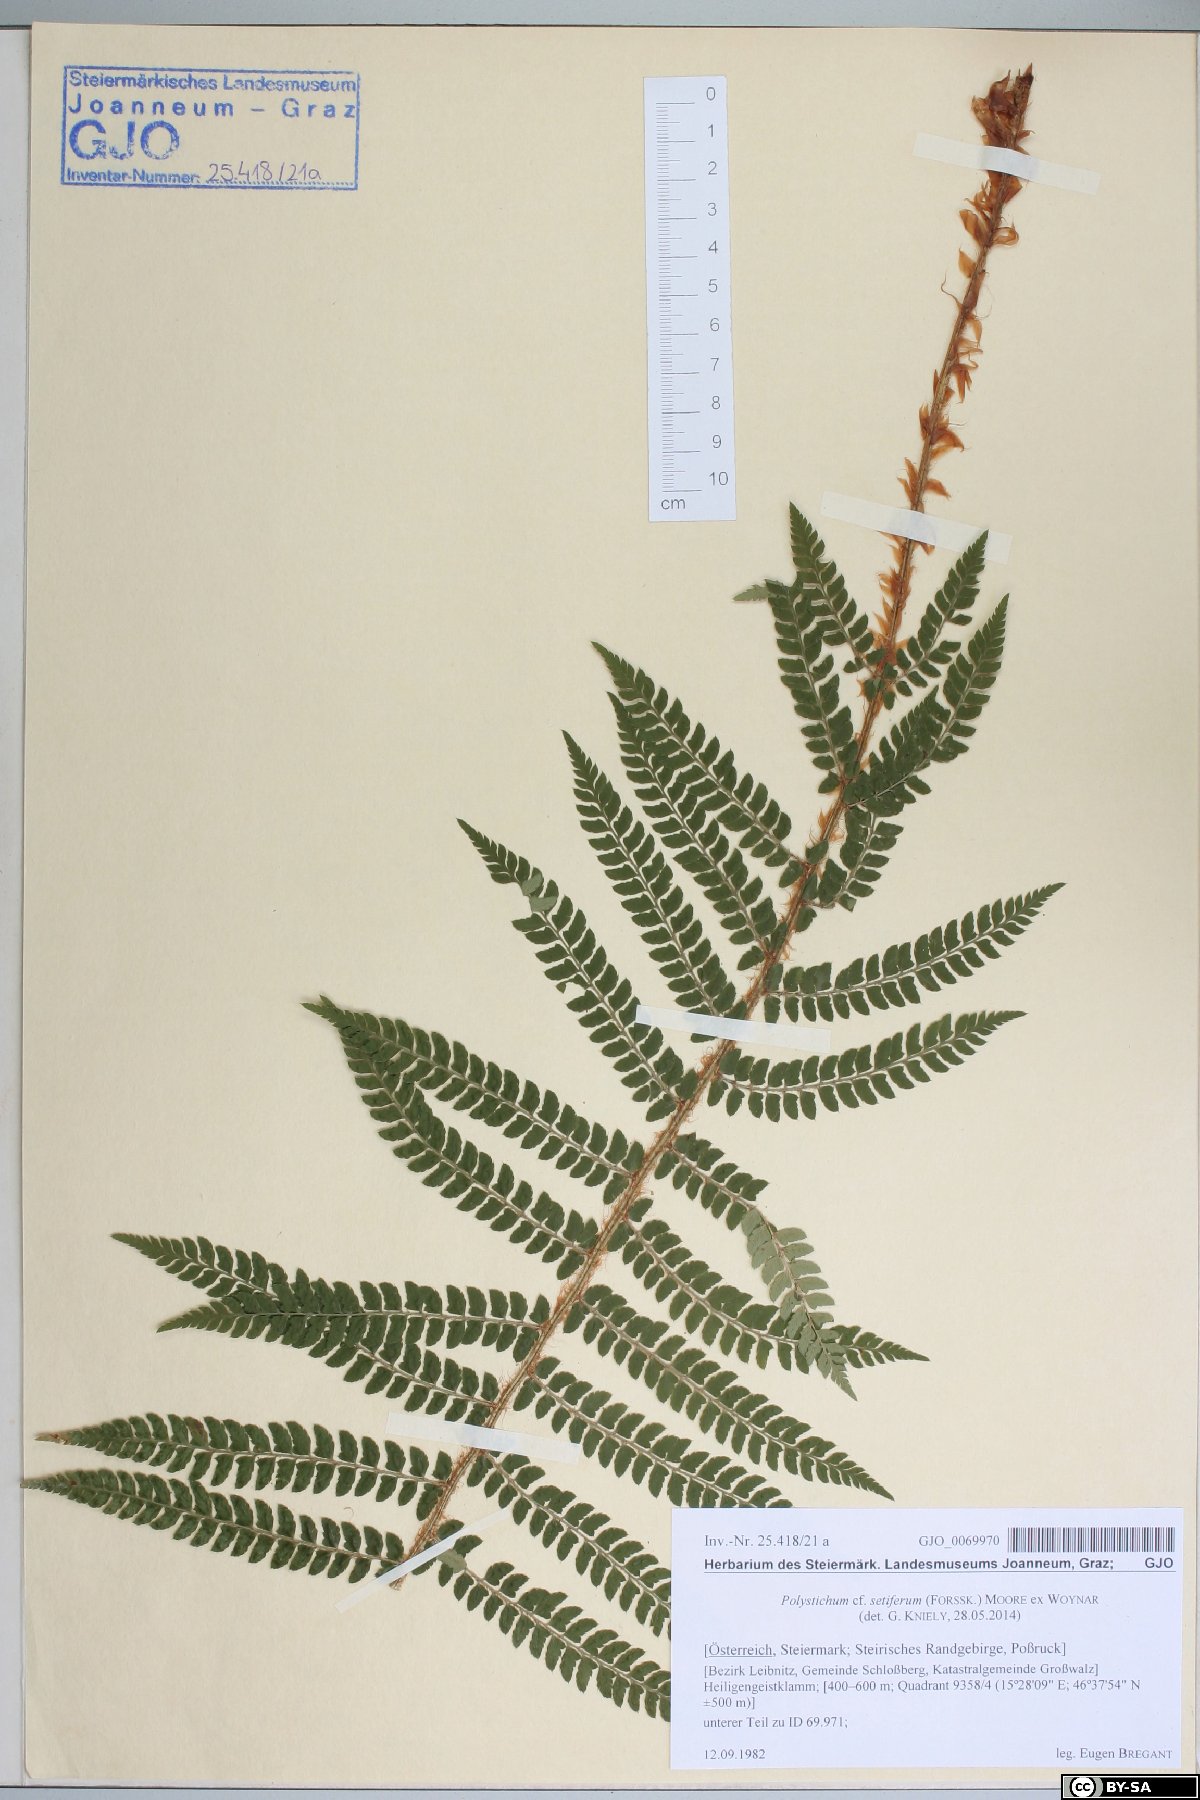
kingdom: Plantae
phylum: Tracheophyta
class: Polypodiopsida
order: Polypodiales
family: Dryopteridaceae
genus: Polystichum
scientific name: Polystichum setiferum
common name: Soft shield-fern
